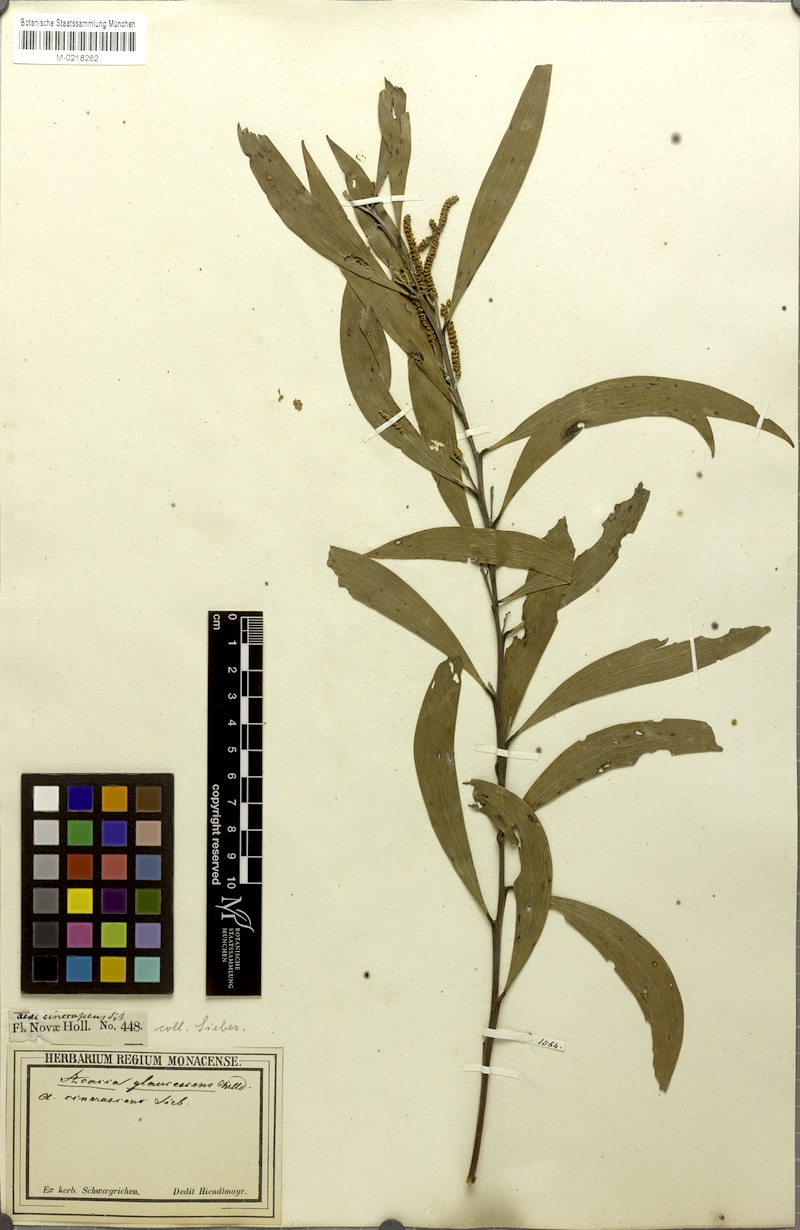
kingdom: Plantae
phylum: Tracheophyta
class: Magnoliopsida
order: Fabales
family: Fabaceae
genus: Acacia
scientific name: Acacia binervia
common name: Coast myall
